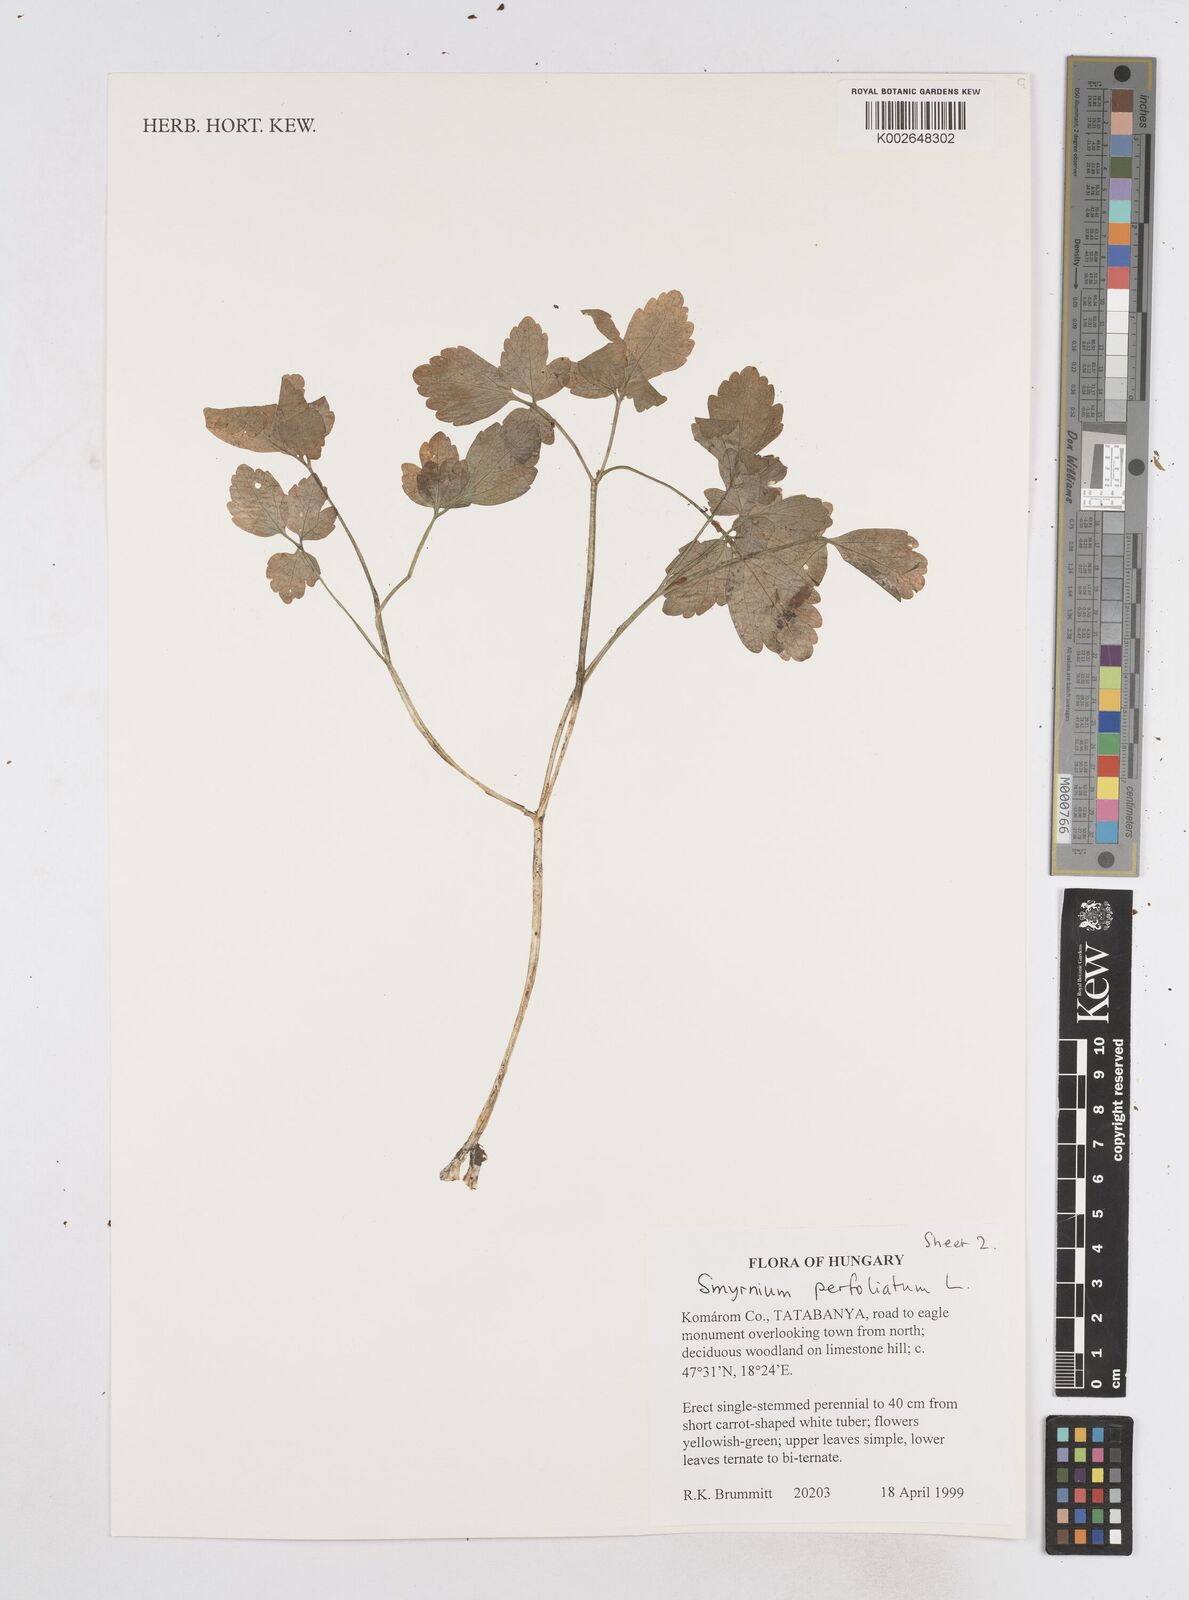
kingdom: Plantae
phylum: Tracheophyta
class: Magnoliopsida
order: Apiales
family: Apiaceae
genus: Smyrnium
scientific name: Smyrnium perfoliatum
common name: Perfoliate alexanders
